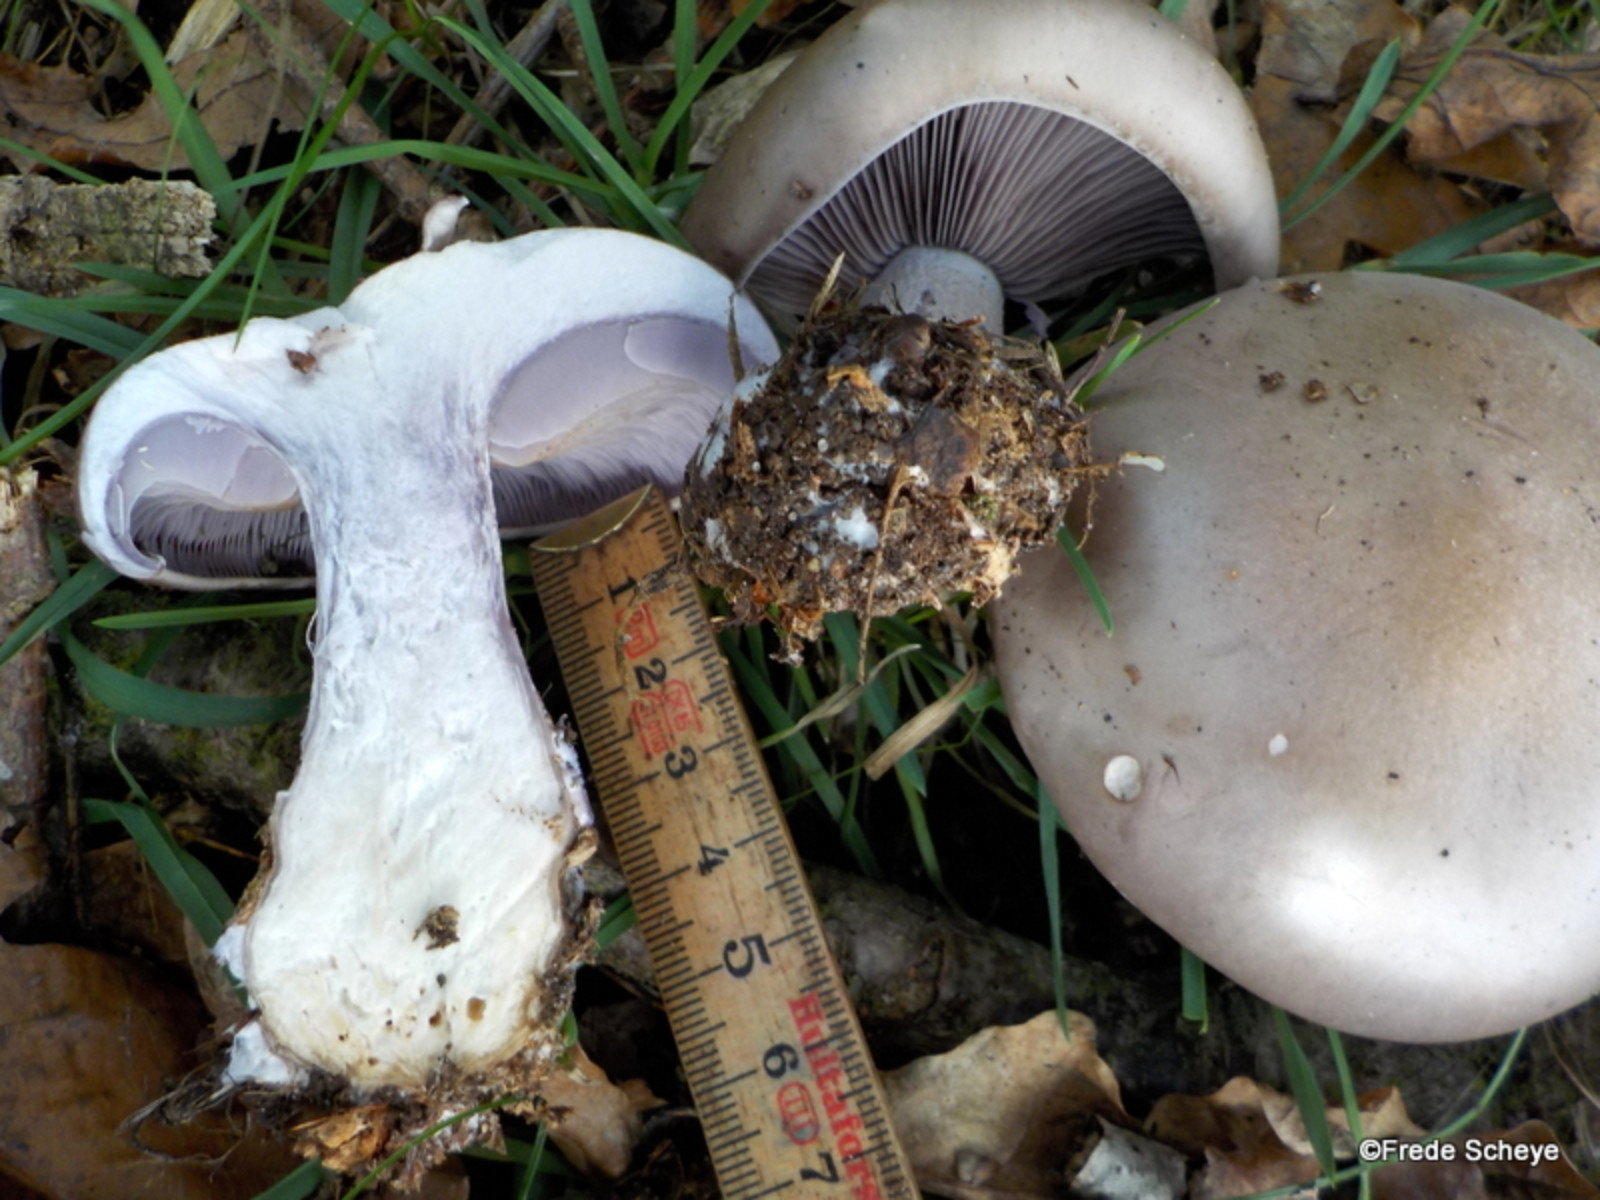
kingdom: Fungi
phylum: Basidiomycota
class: Agaricomycetes
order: Agaricales
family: Tricholomataceae
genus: Lepista
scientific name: Lepista nuda
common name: violet hekseringshat
